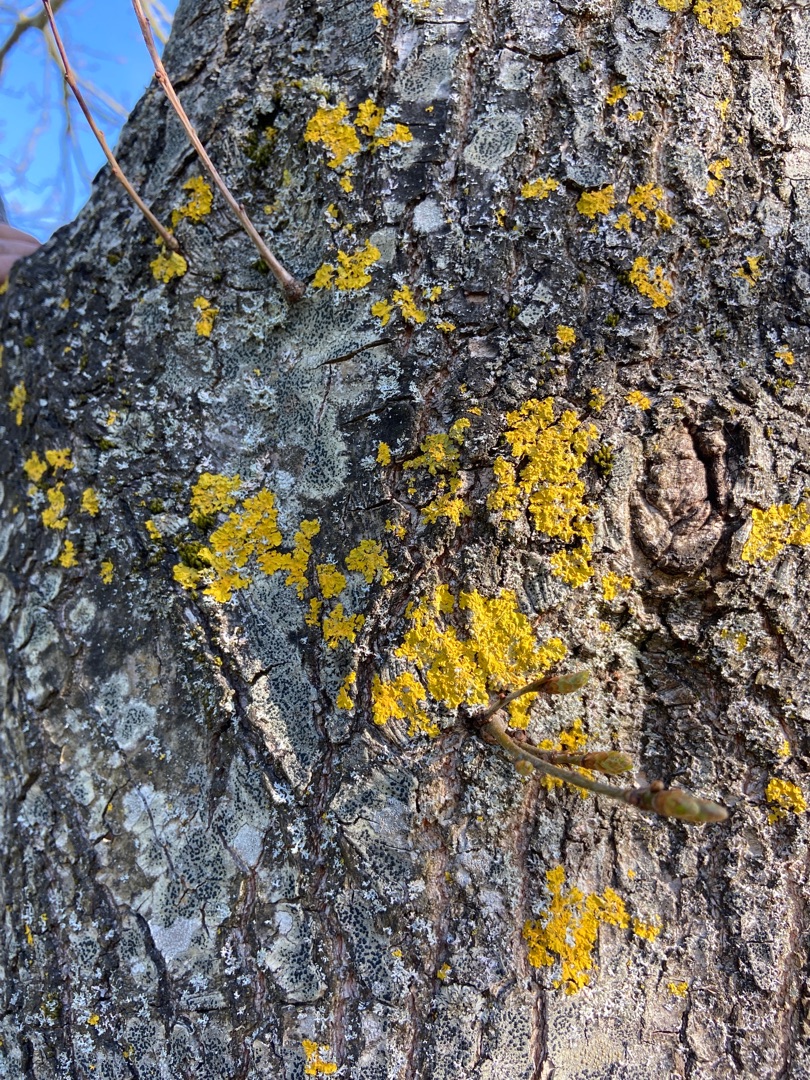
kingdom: Fungi
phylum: Ascomycota
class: Lecanoromycetes
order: Teloschistales
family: Teloschistaceae
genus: Xanthoria
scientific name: Xanthoria parietina
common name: Almindelig væggelav
